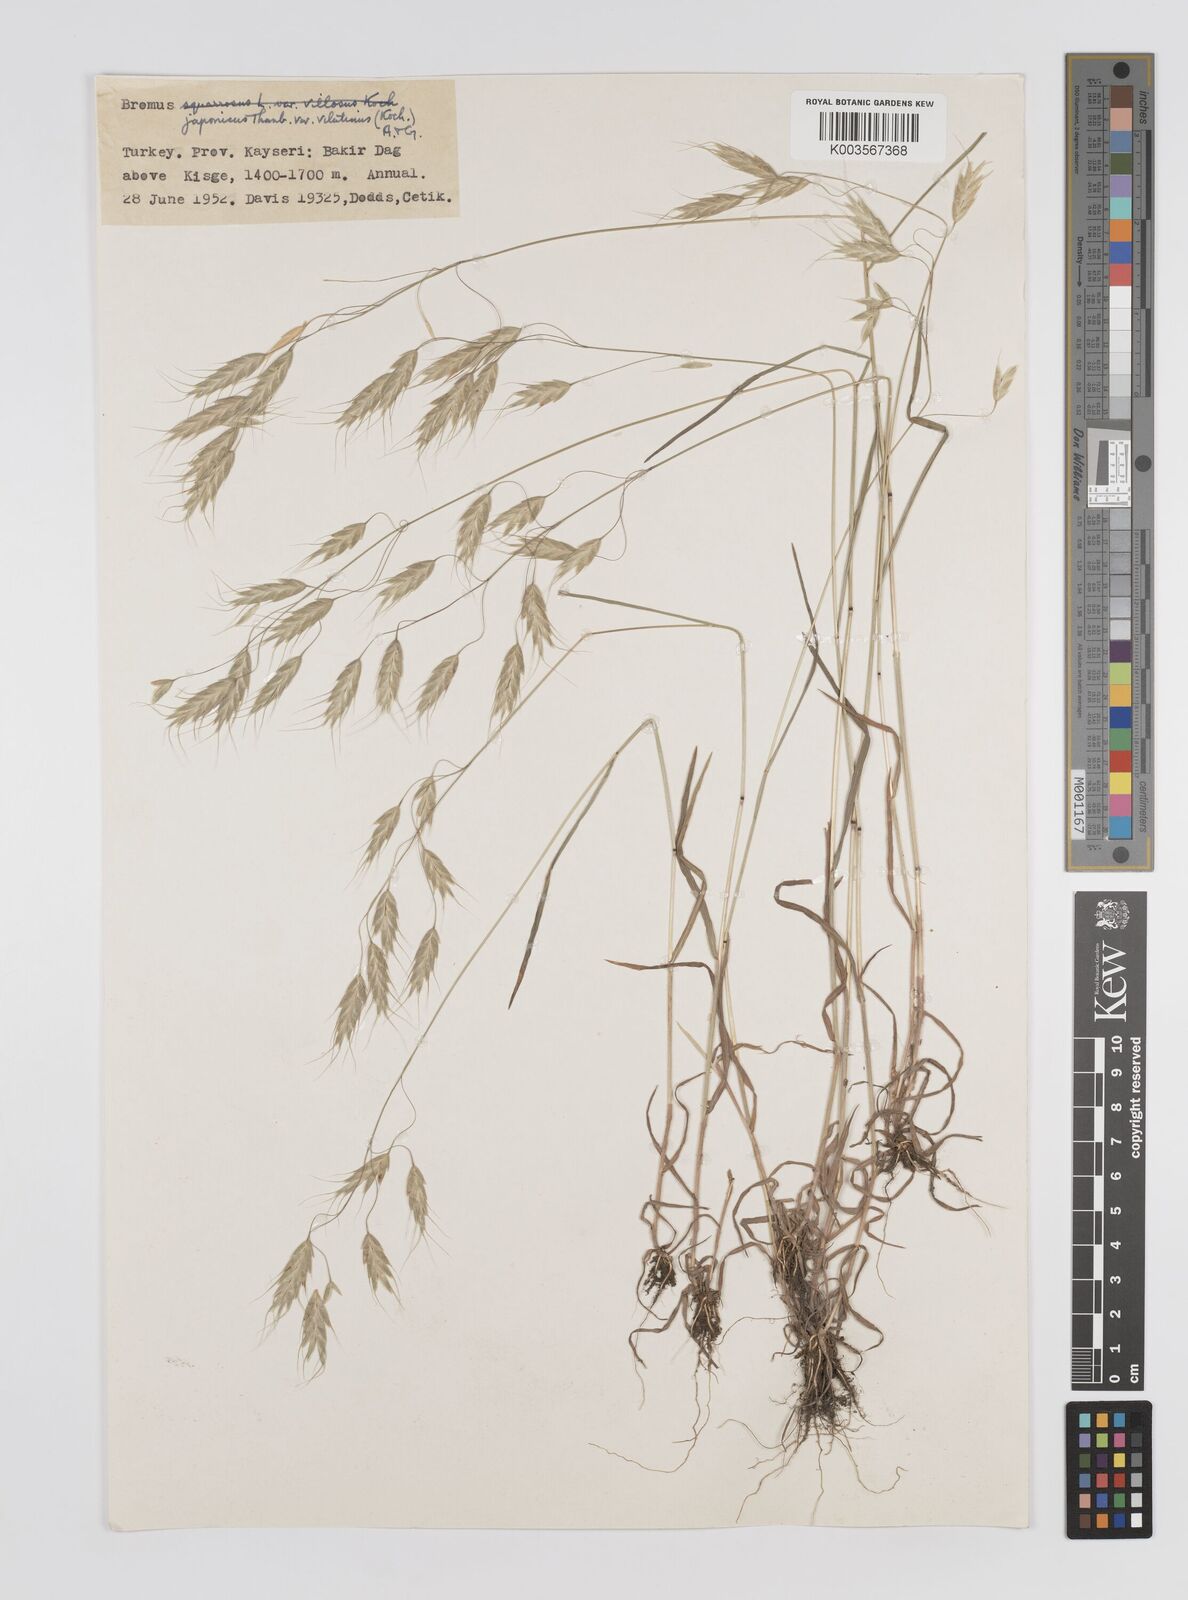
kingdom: Plantae
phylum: Tracheophyta
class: Liliopsida
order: Poales
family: Poaceae
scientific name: Poaceae
